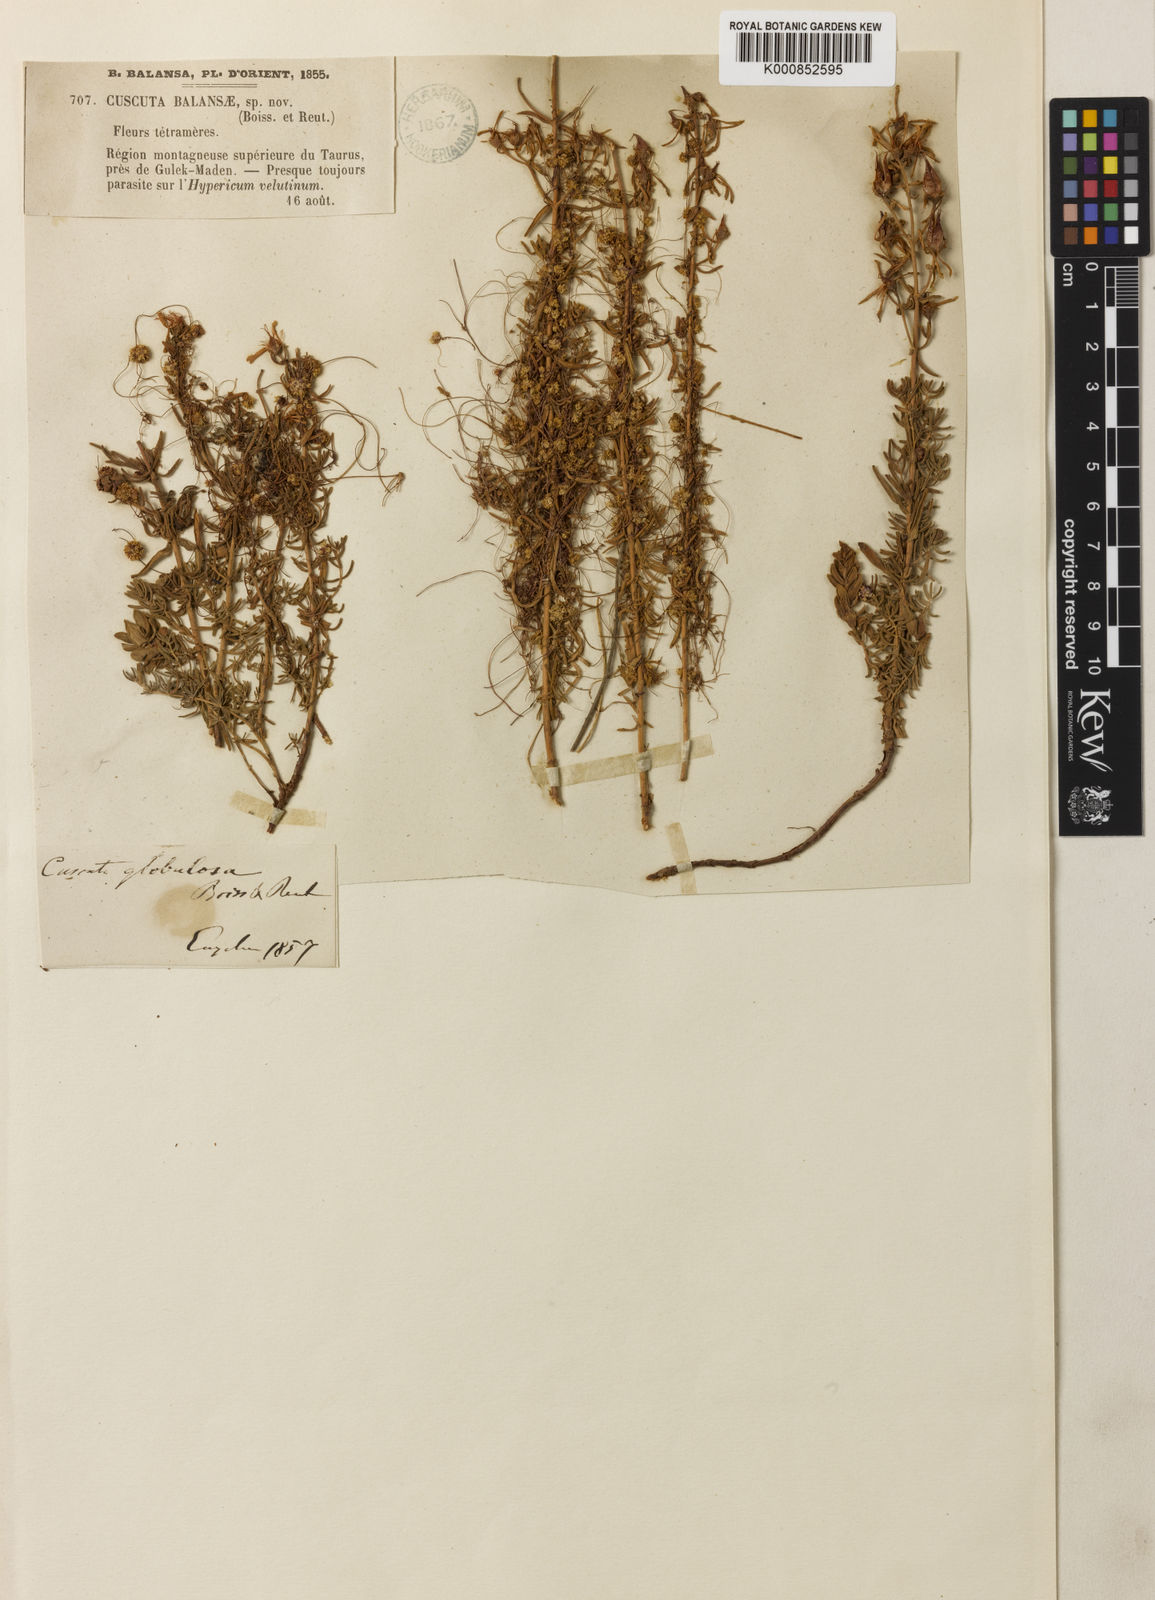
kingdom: Plantae
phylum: Tracheophyta
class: Magnoliopsida
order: Solanales
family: Convolvulaceae
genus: Cuscuta
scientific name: Cuscuta balansae
